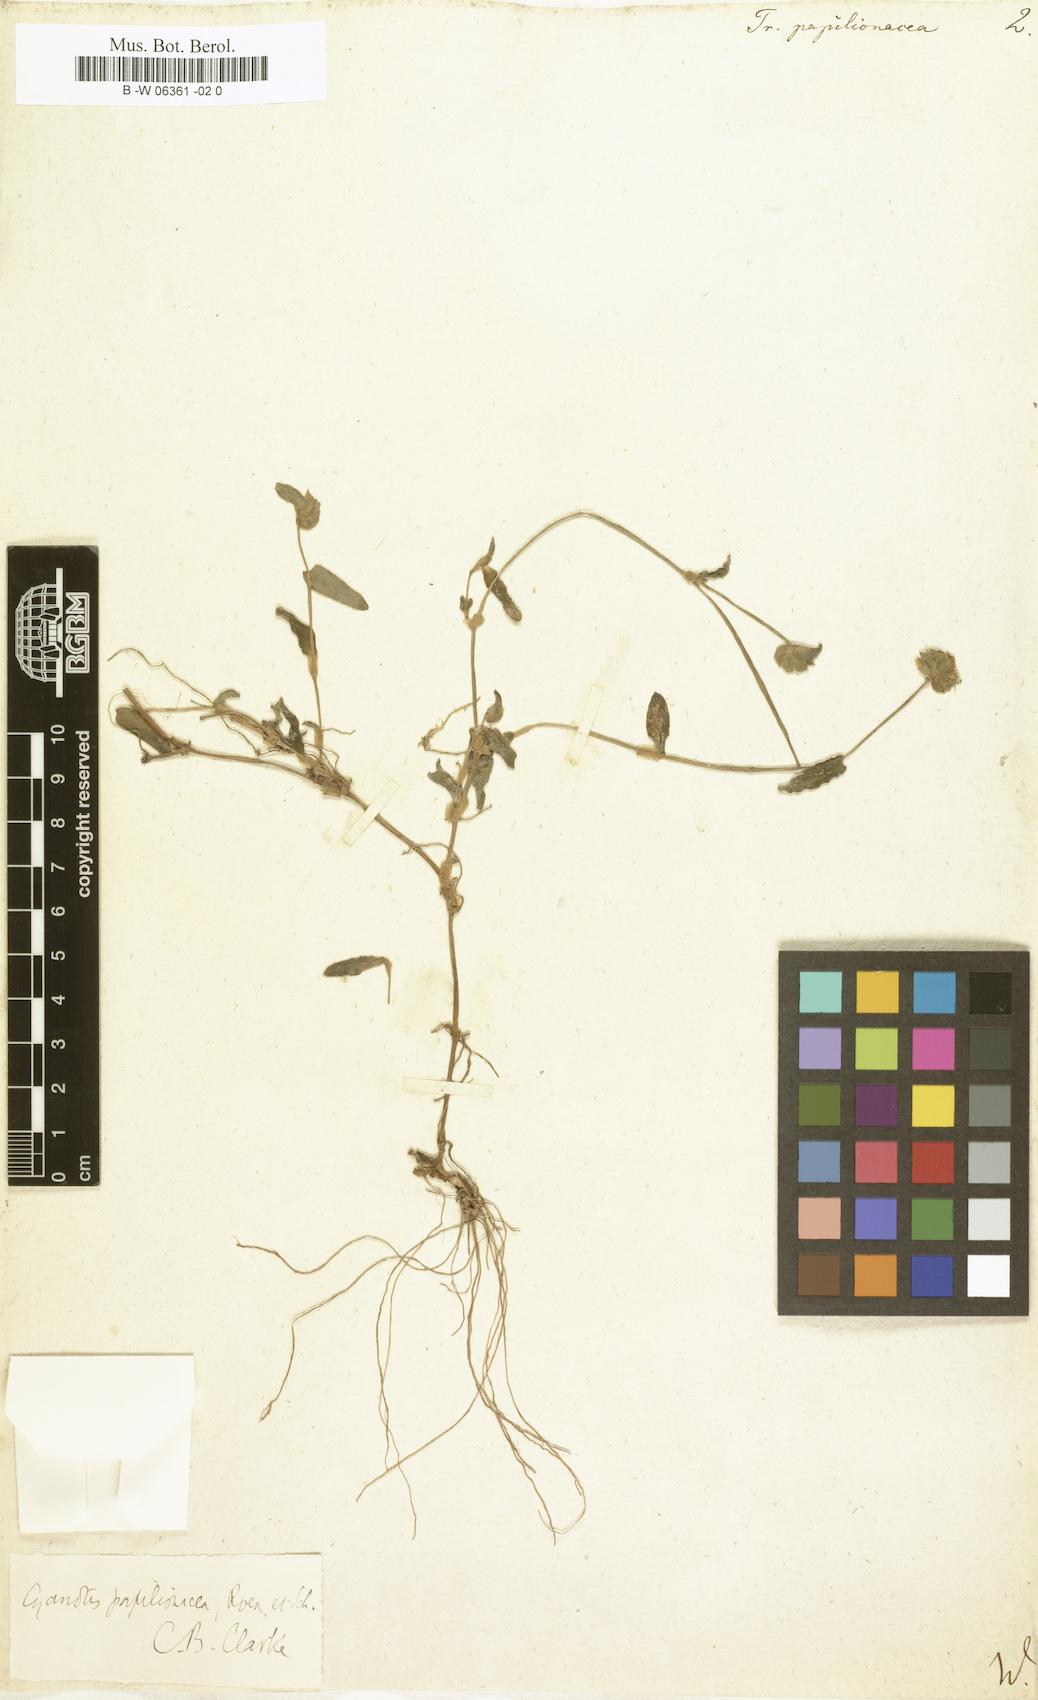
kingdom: Plantae
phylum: Tracheophyta
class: Liliopsida
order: Commelinales
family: Commelinaceae
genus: Cyanotis
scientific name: Cyanotis cristata
